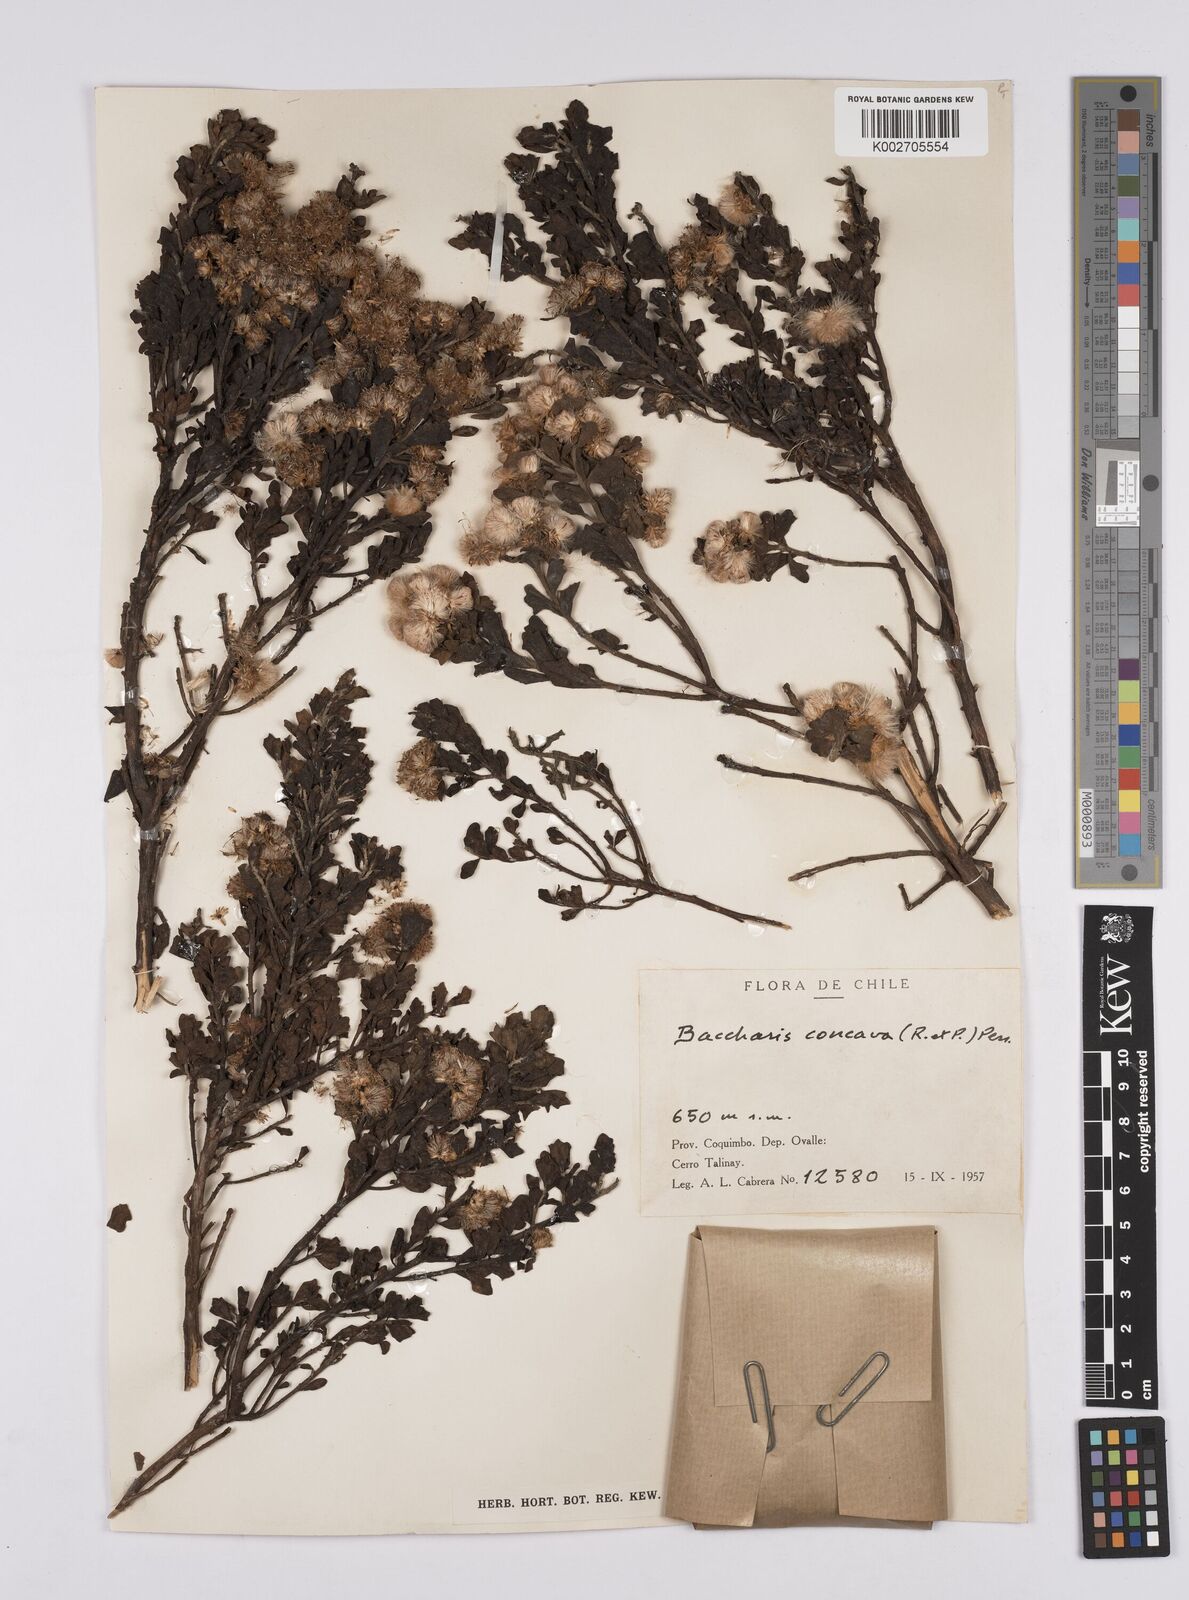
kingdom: Plantae
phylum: Tracheophyta
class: Magnoliopsida
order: Asterales
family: Asteraceae
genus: Baccharis
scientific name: Baccharis concava
